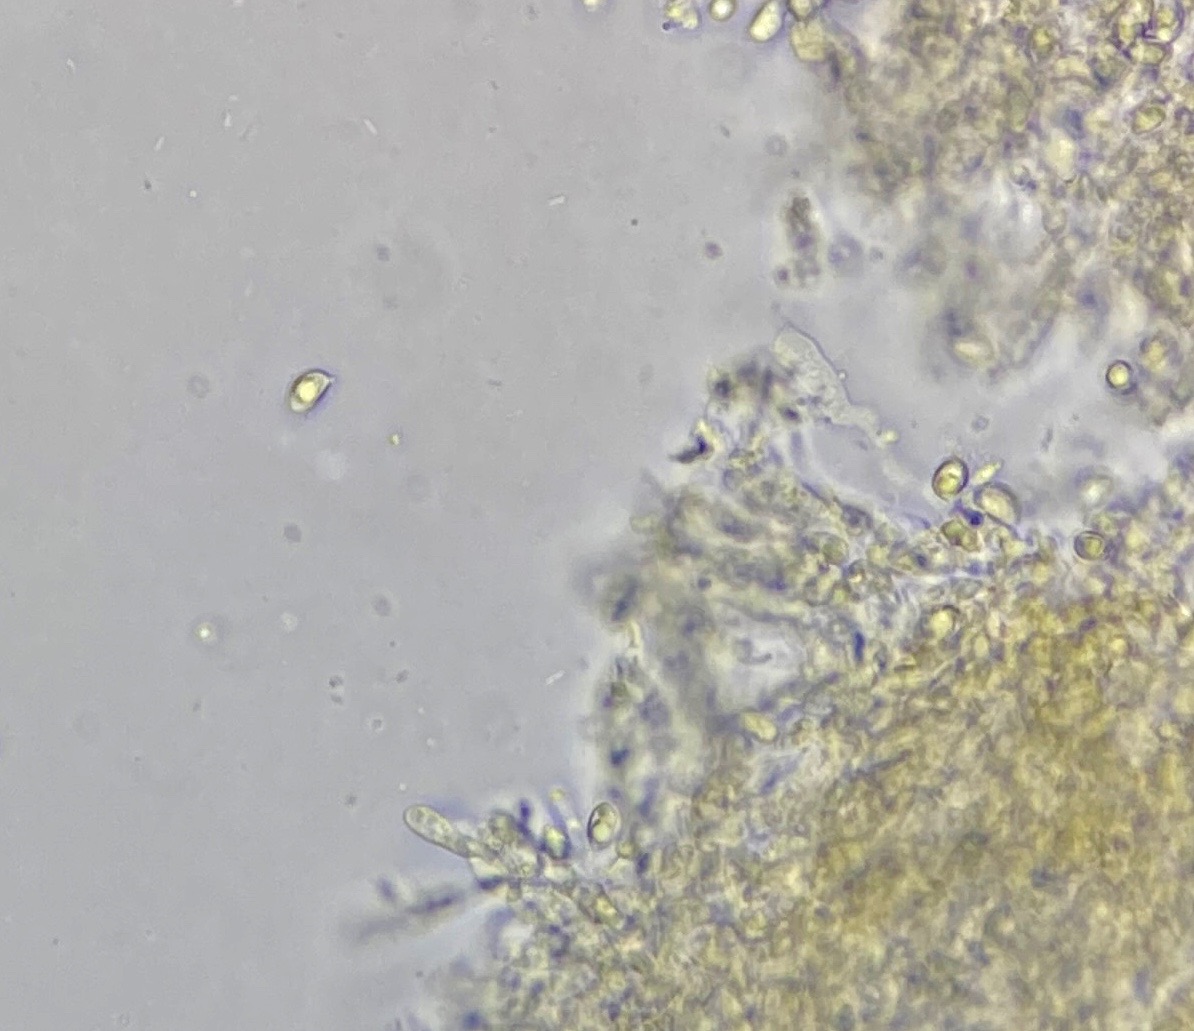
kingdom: Fungi
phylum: Basidiomycota
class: Agaricomycetes
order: Agaricales
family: Clavariaceae
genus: Clavulinopsis
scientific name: Clavulinopsis luteoalba
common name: abrikos-køllesvamp
